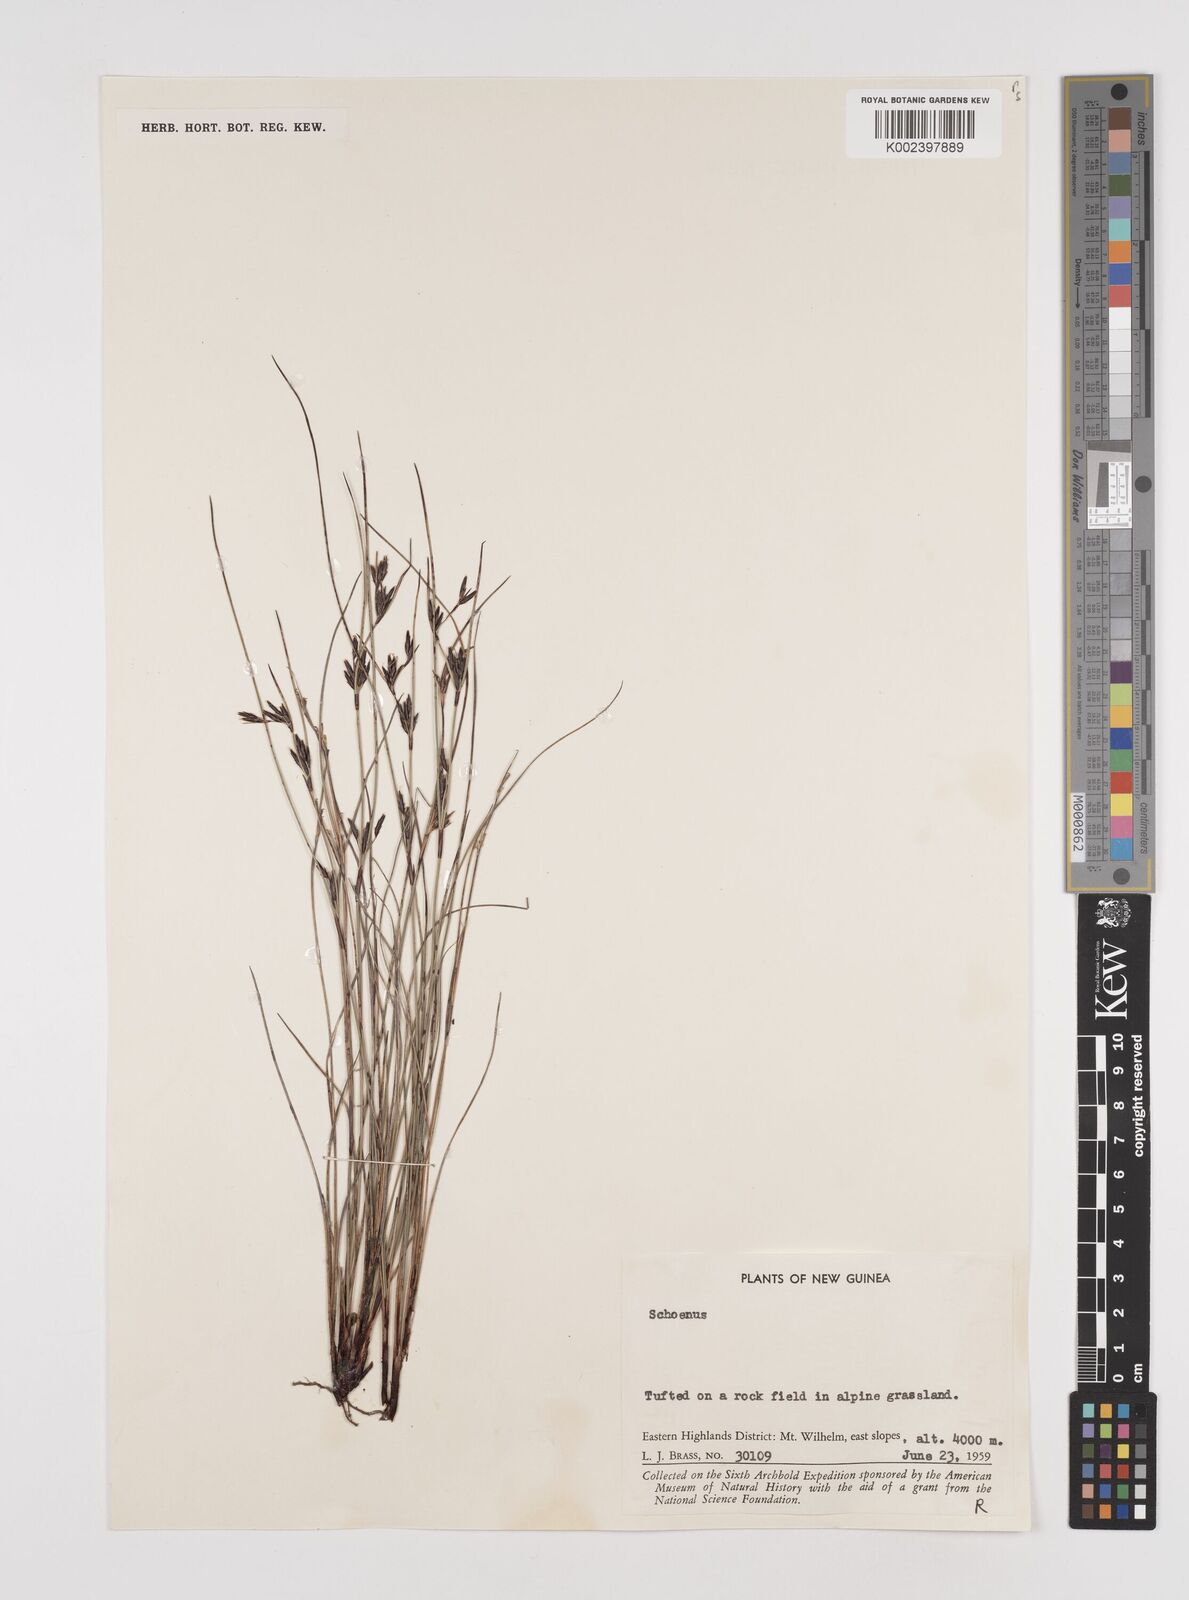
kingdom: Plantae
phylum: Tracheophyta
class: Liliopsida
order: Poales
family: Cyperaceae
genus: Schoenus
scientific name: Schoenus curvulus
